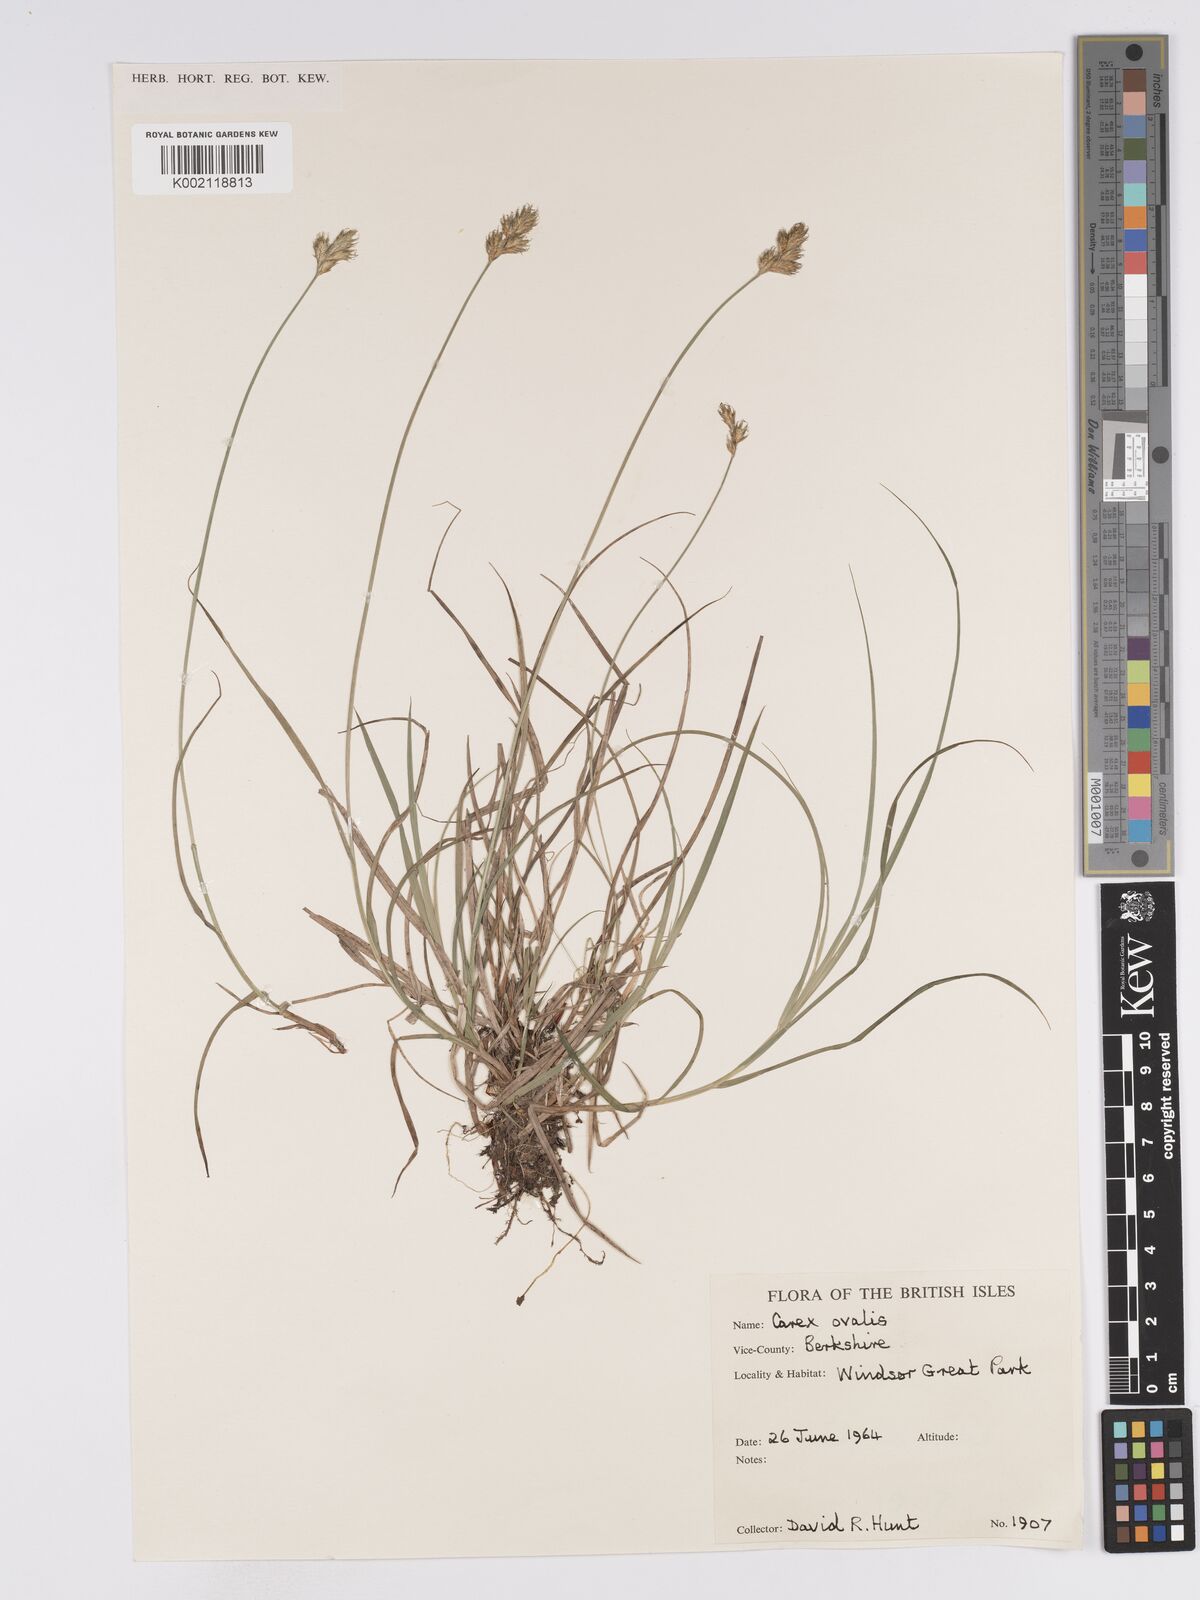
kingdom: Plantae
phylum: Tracheophyta
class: Liliopsida
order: Poales
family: Cyperaceae
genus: Carex
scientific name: Carex leporina
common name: Oval sedge
